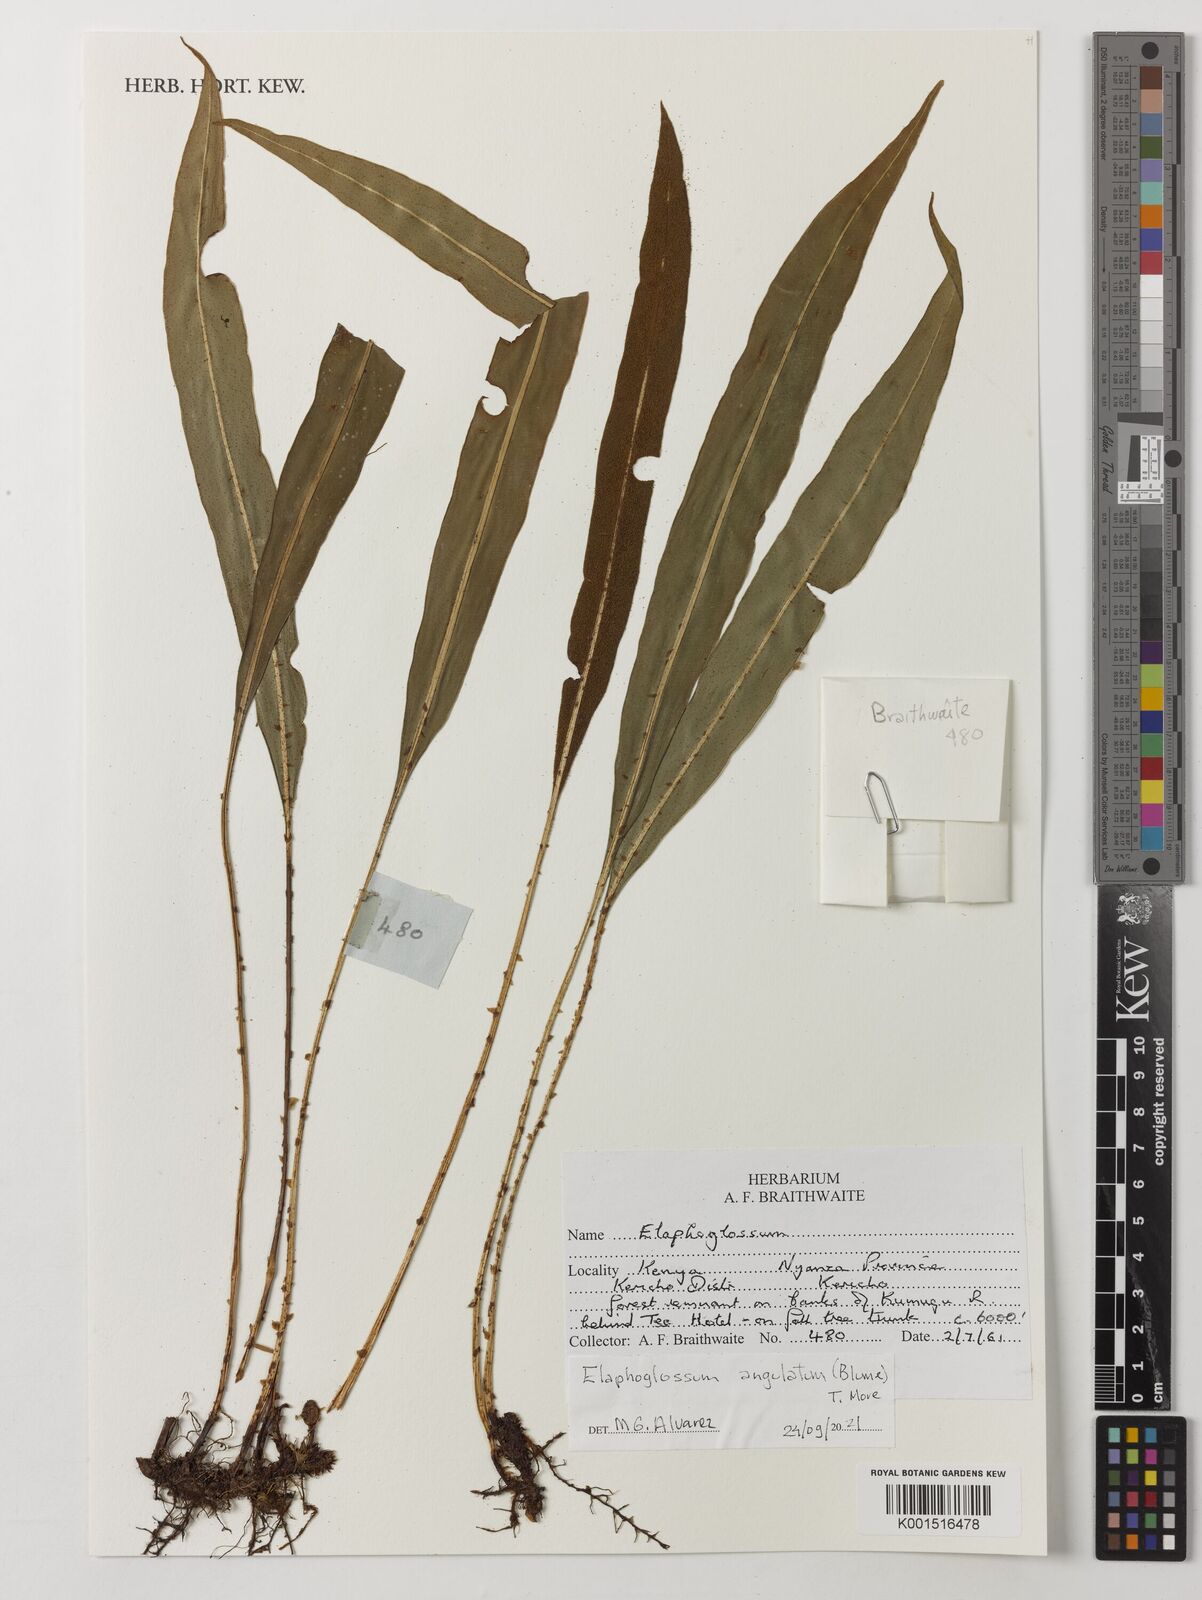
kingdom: Plantae
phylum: Tracheophyta
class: Polypodiopsida
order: Polypodiales
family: Dryopteridaceae
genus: Elaphoglossum
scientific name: Elaphoglossum angulatum
